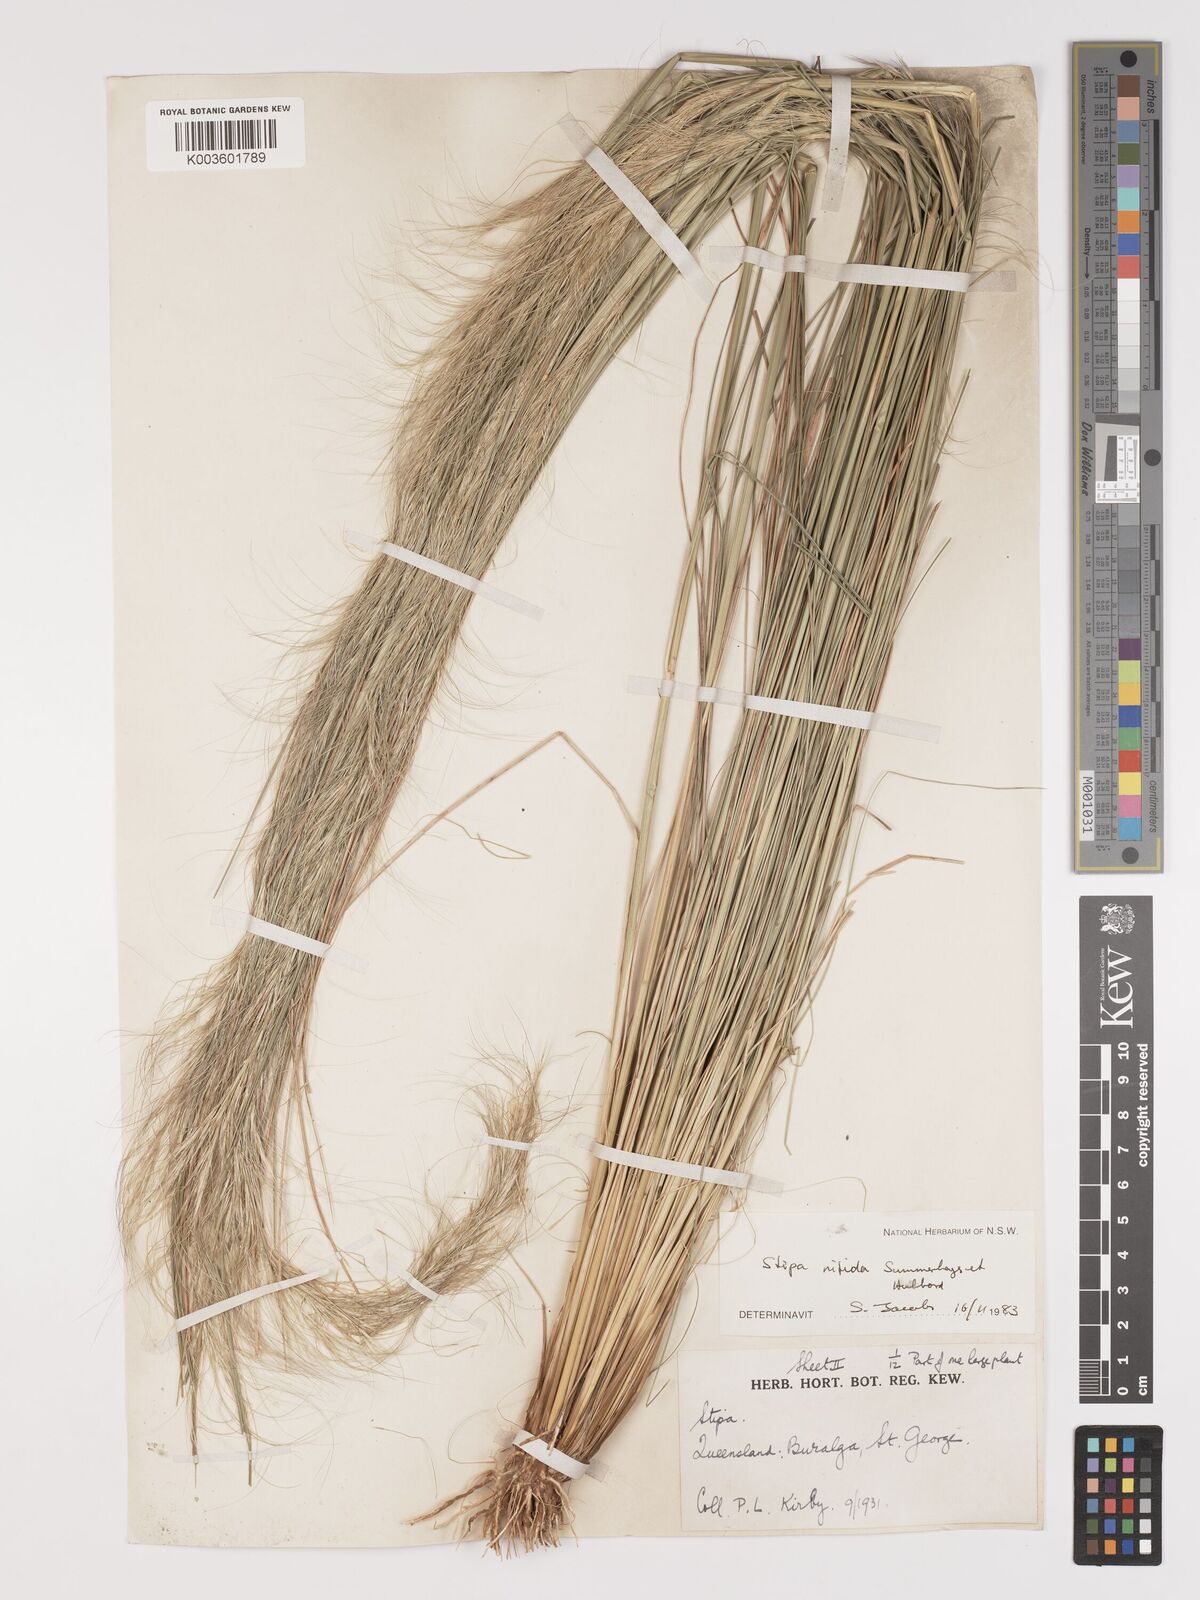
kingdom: Plantae
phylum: Tracheophyta
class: Liliopsida
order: Poales
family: Poaceae
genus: Austrostipa
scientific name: Austrostipa nitida
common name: Balcarra grass
